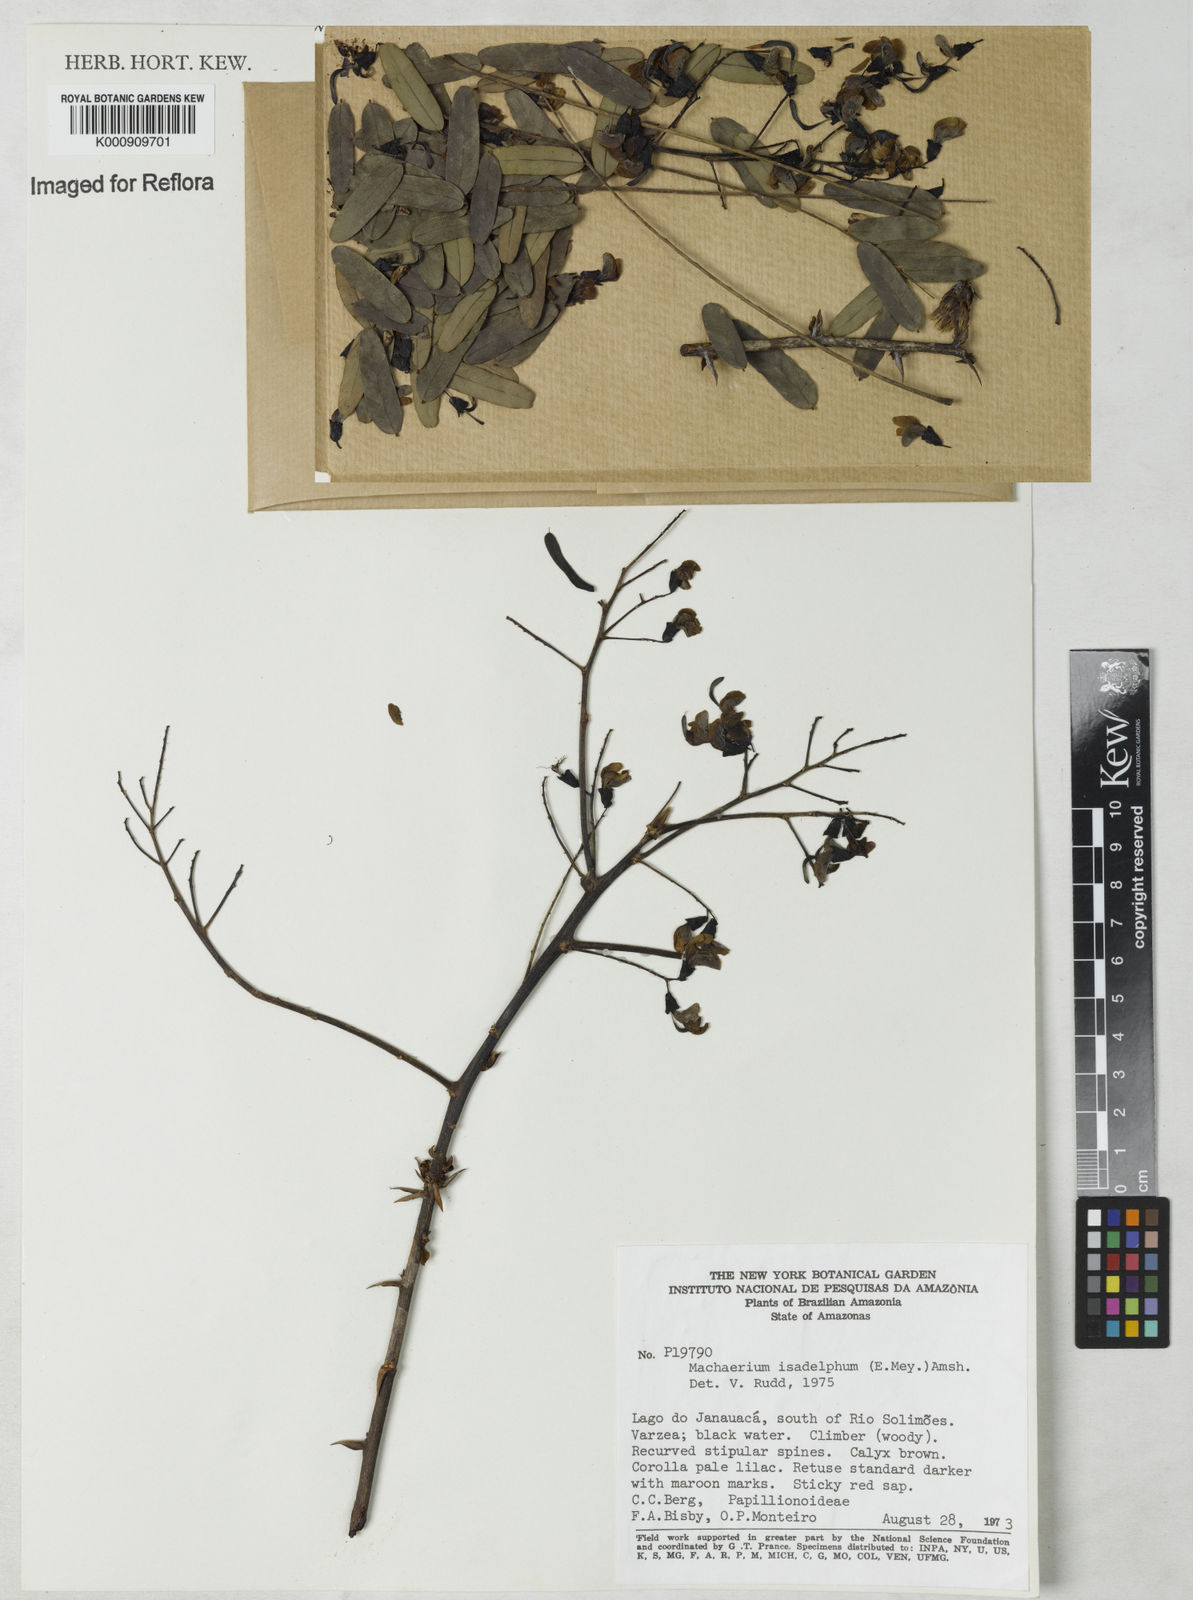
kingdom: Plantae
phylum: Tracheophyta
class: Magnoliopsida
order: Fabales
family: Fabaceae
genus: Machaerium
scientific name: Machaerium isadelphum
